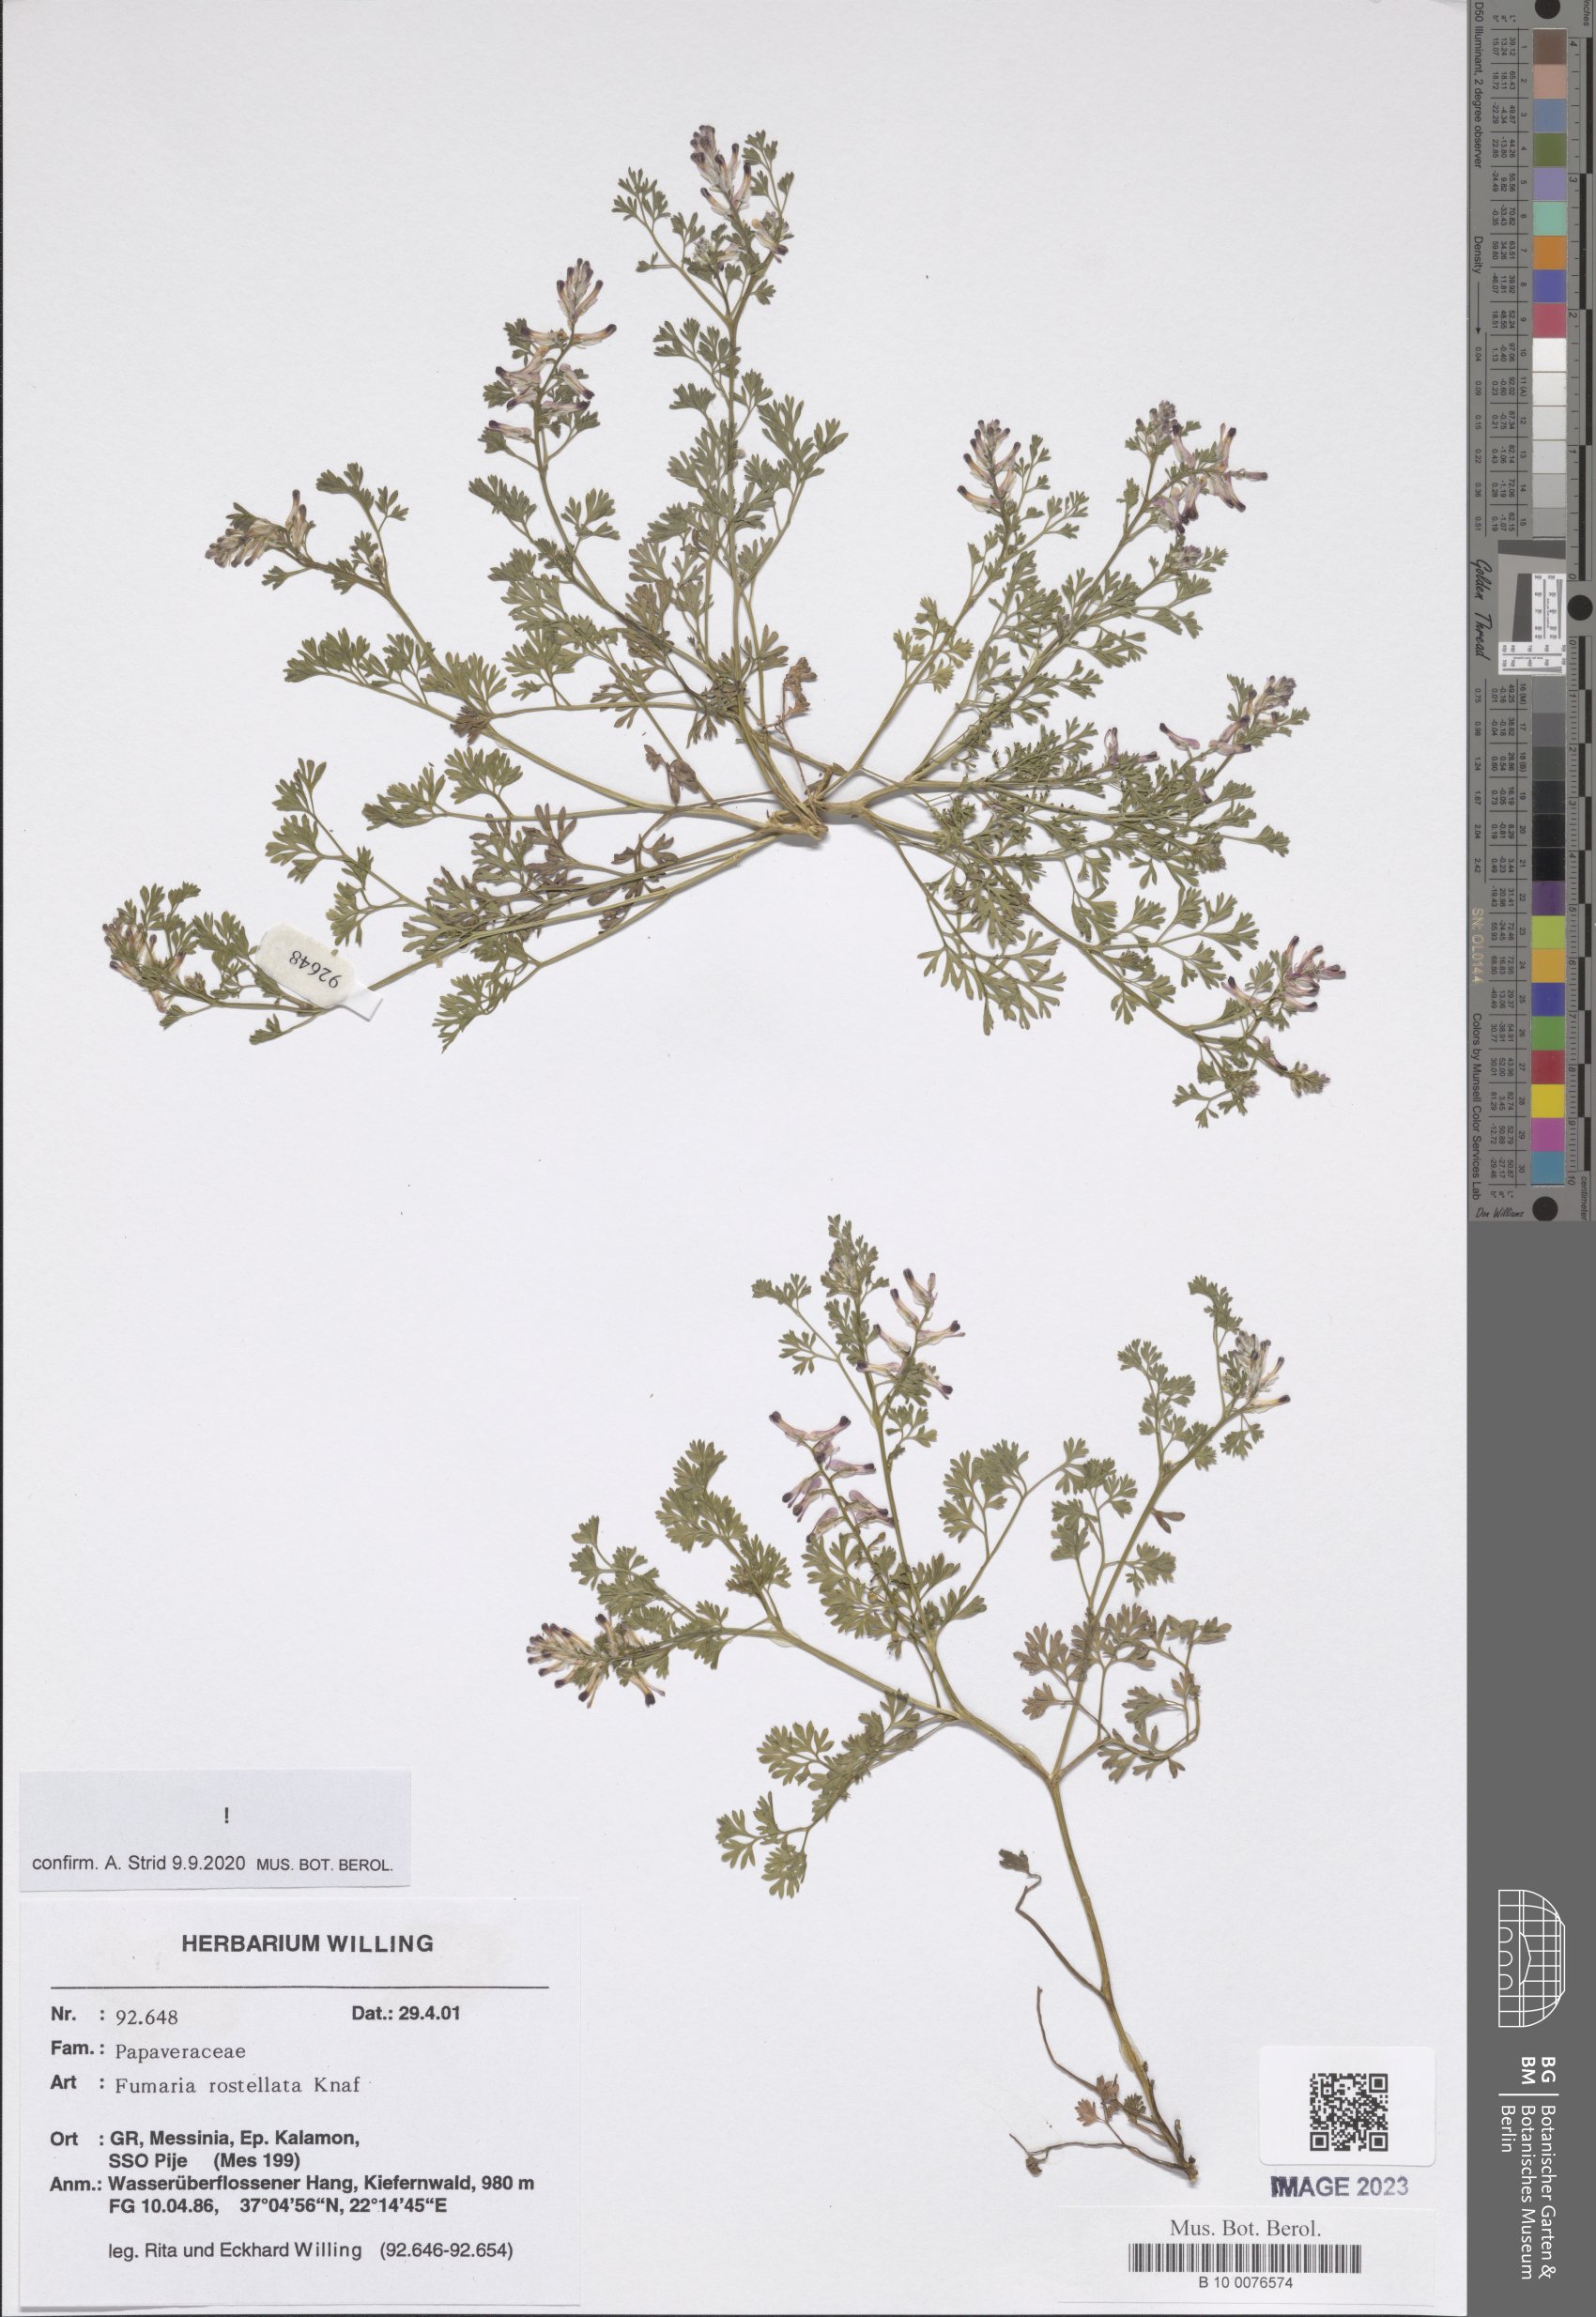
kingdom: Plantae
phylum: Tracheophyta
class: Magnoliopsida
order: Ranunculales
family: Papaveraceae
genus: Fumaria
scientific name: Fumaria rostellata
